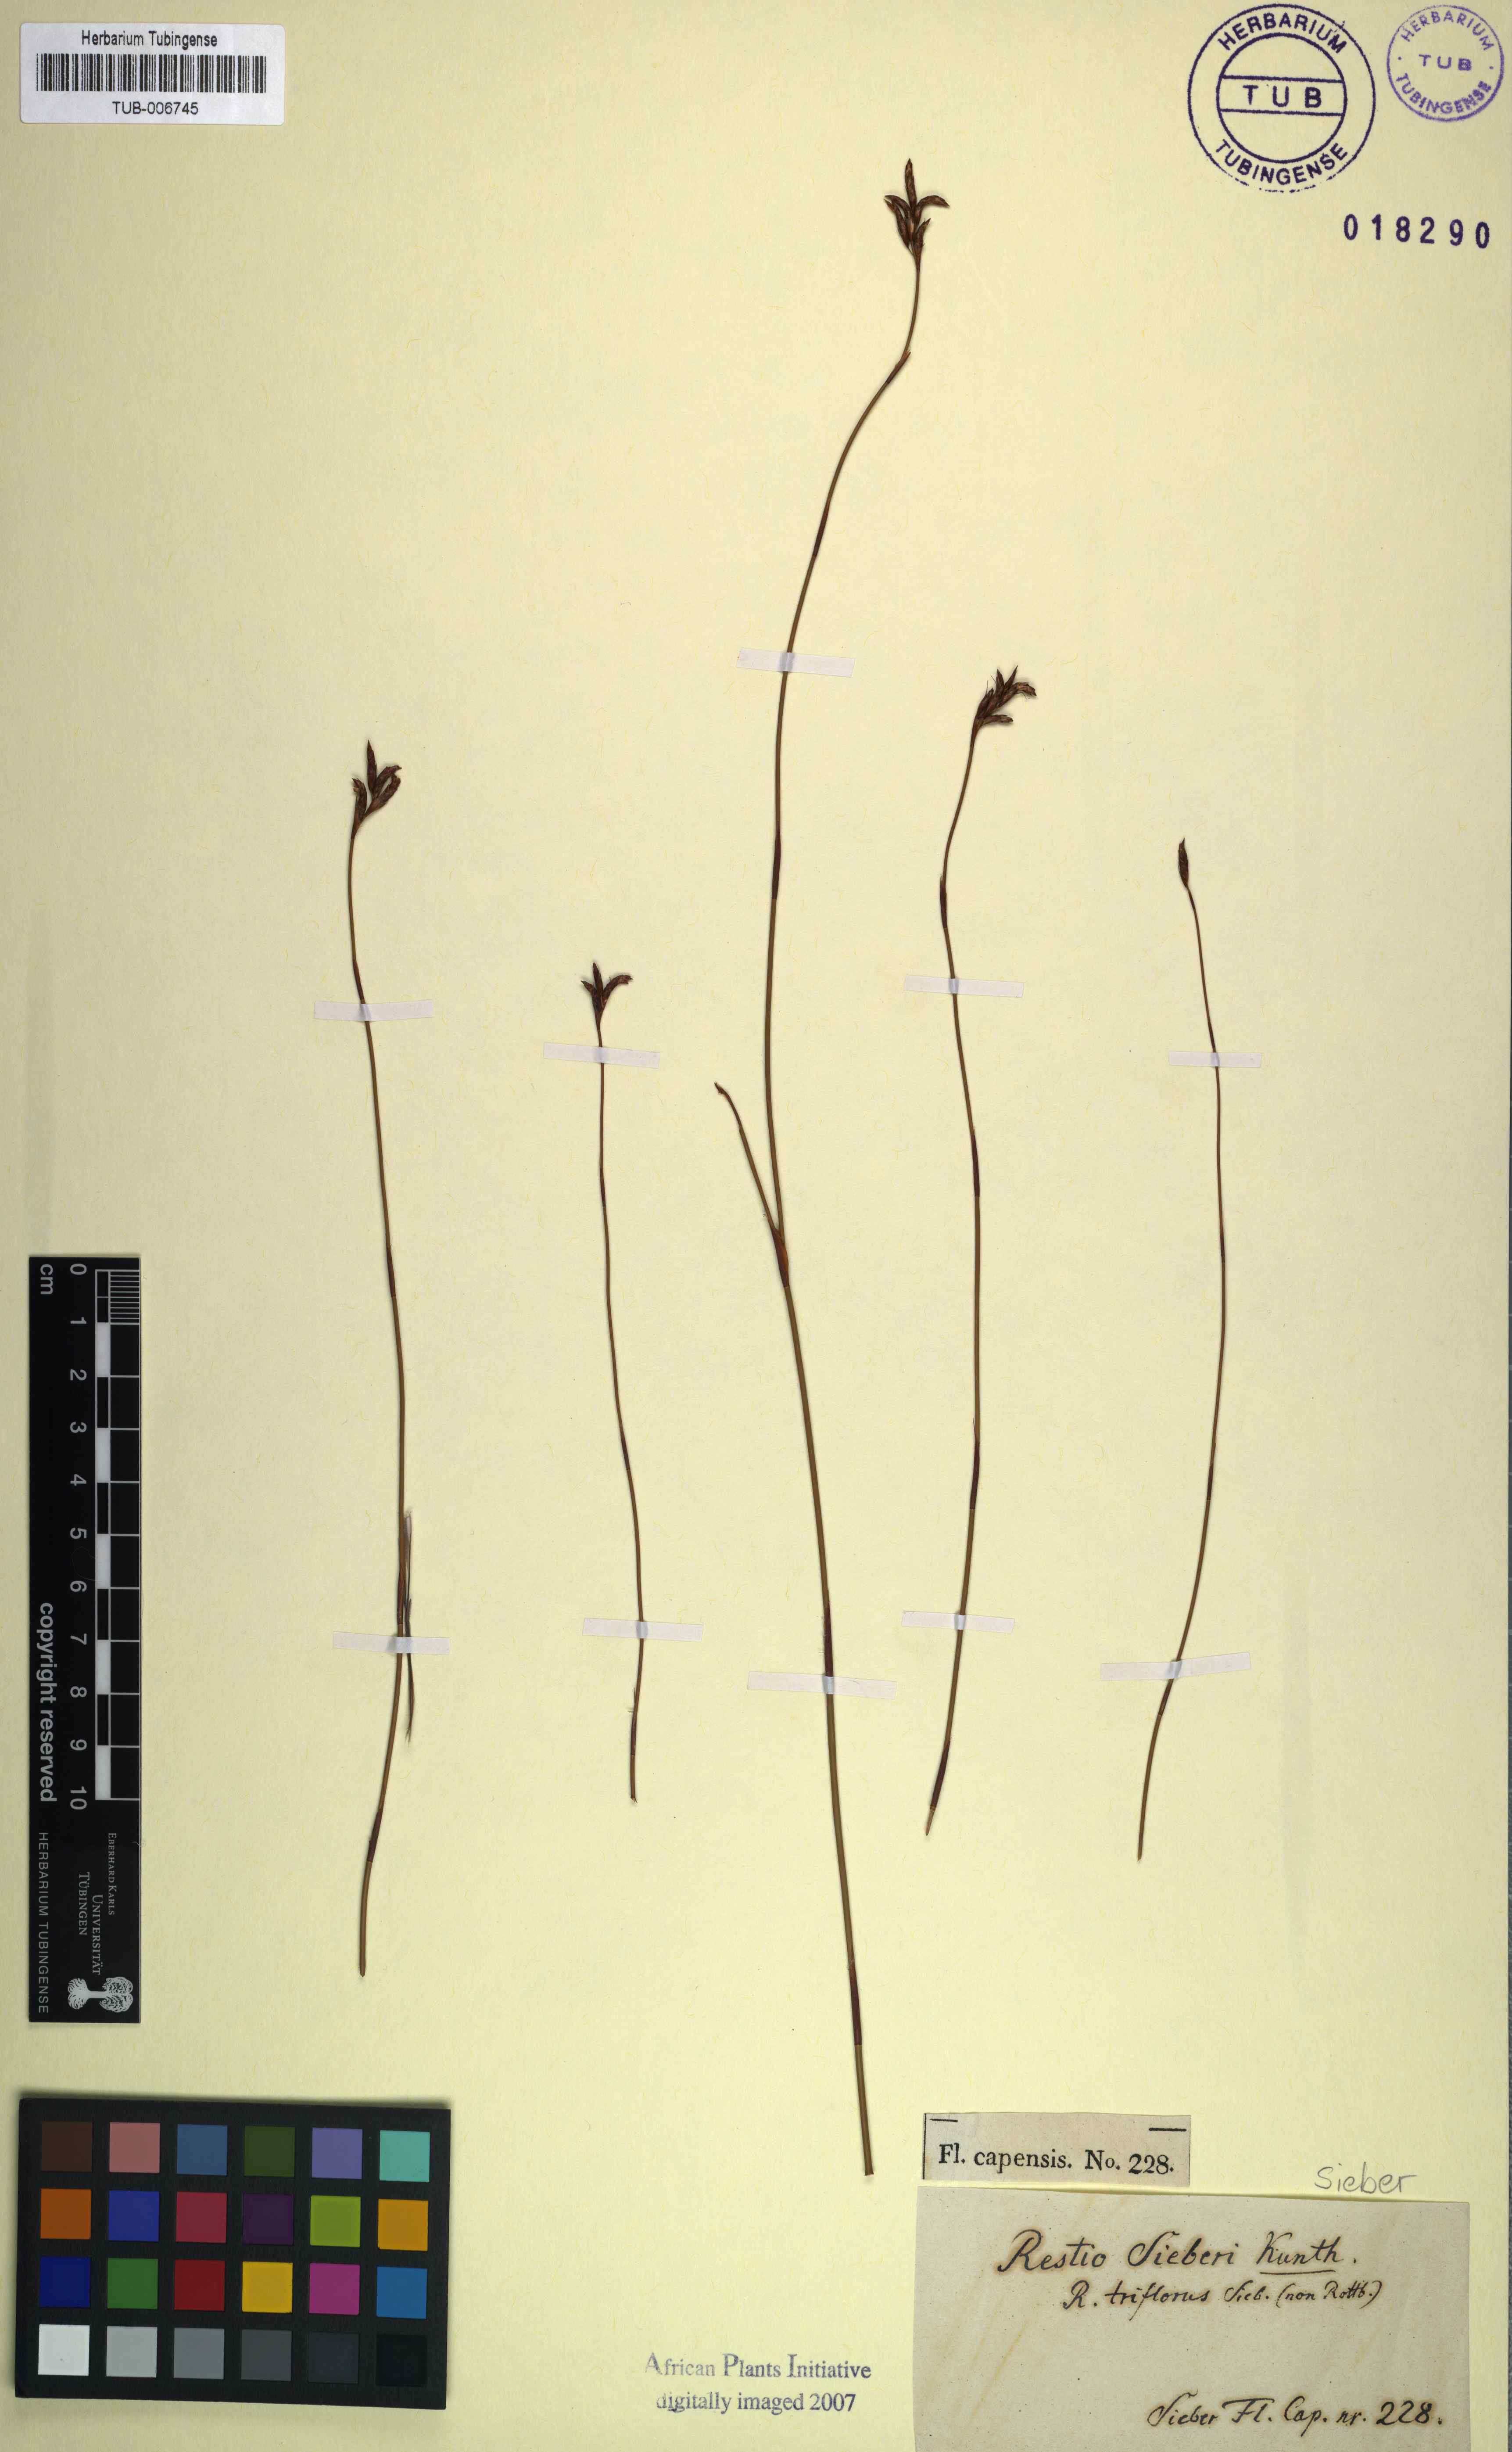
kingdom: Plantae
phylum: Tracheophyta
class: Liliopsida
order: Poales
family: Restionaceae
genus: Restio
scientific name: Restio sieberi
